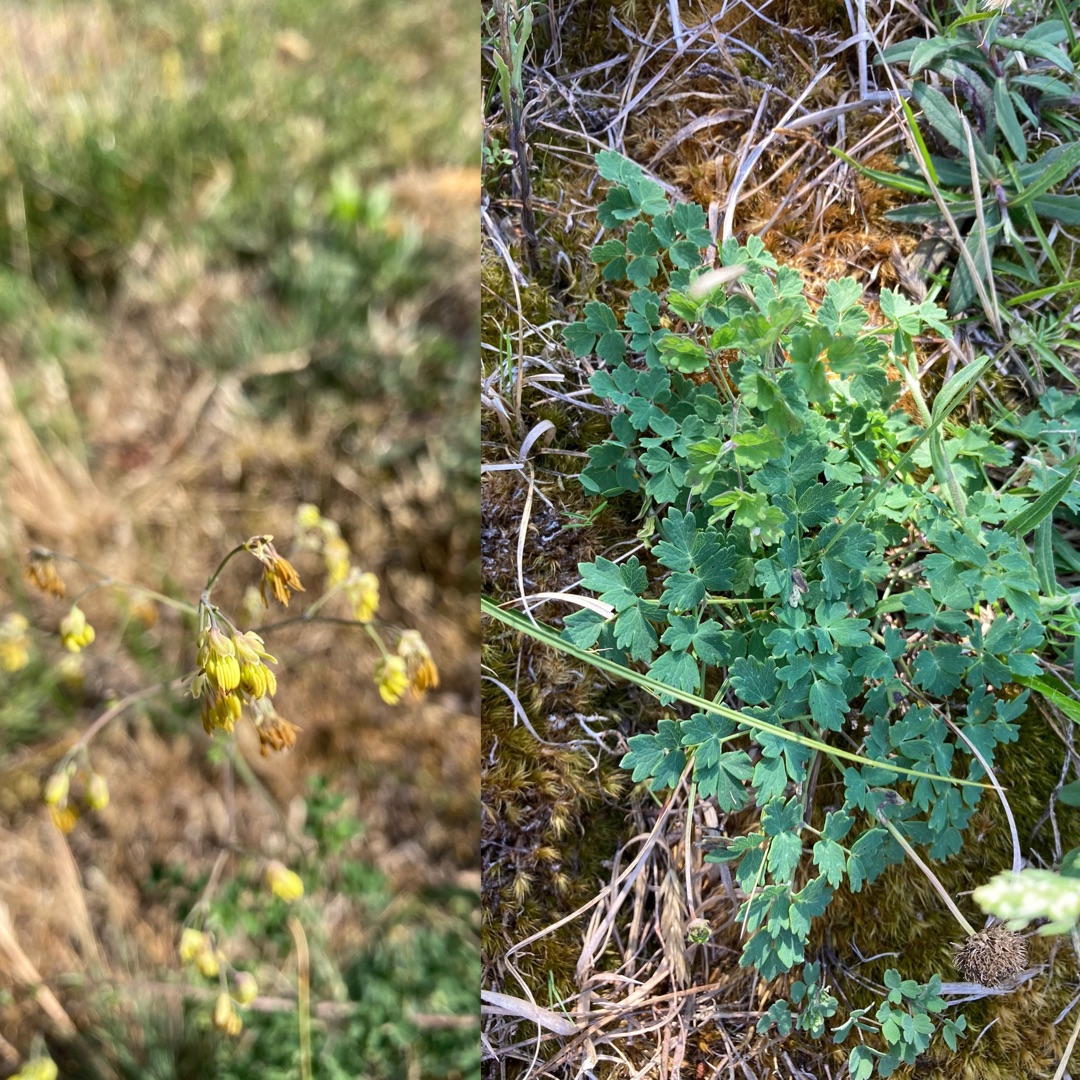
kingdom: Plantae
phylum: Tracheophyta
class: Magnoliopsida
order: Ranunculales
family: Ranunculaceae
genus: Thalictrum
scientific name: Thalictrum minus
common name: Liden frøstjerne
